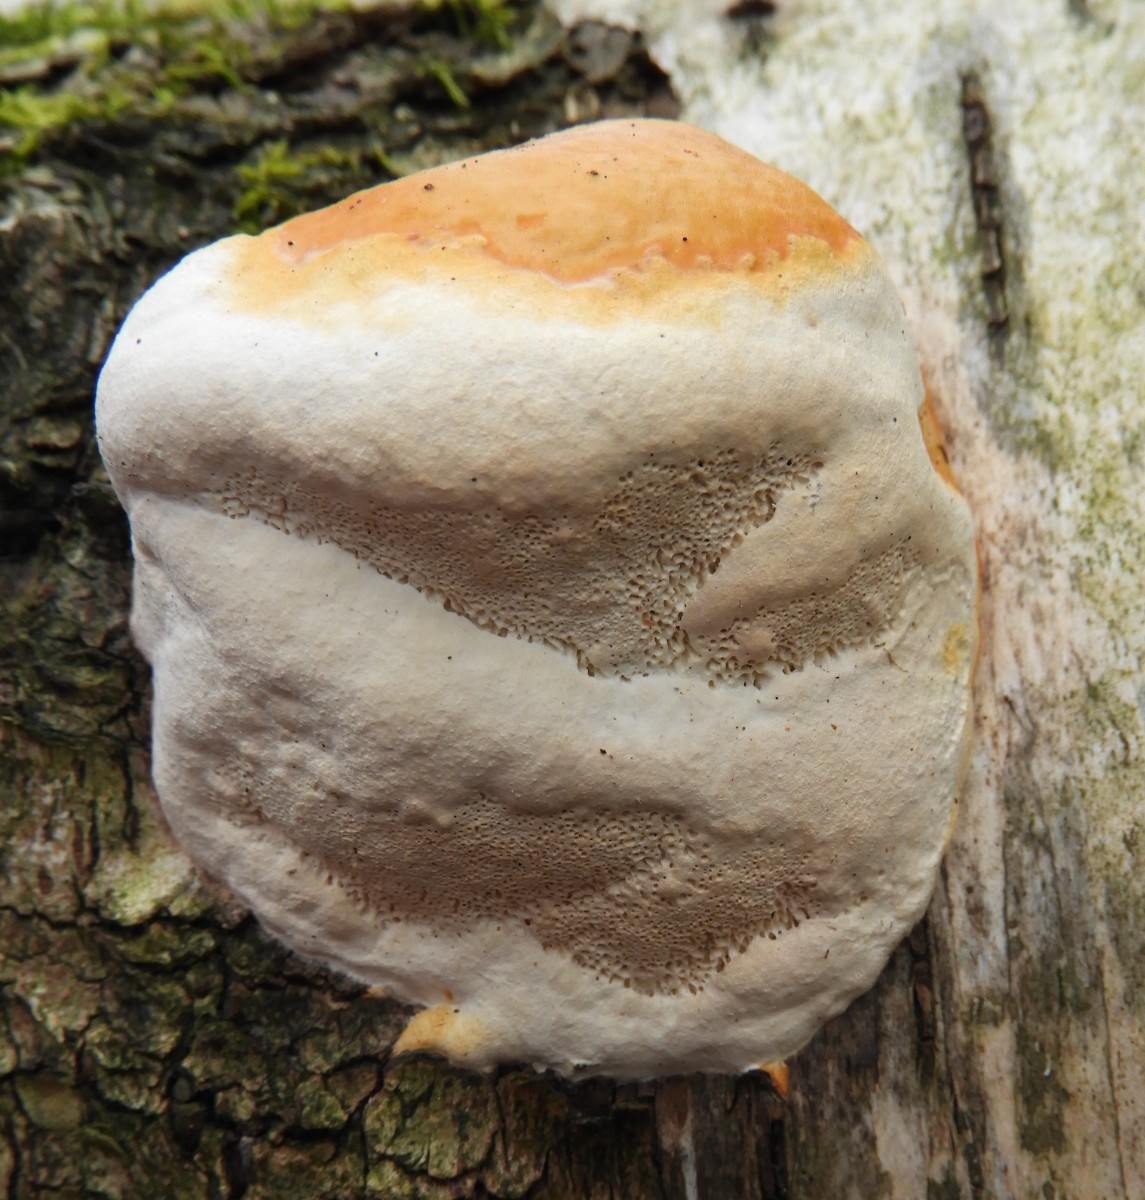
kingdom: Fungi
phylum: Basidiomycota
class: Agaricomycetes
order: Polyporales
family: Fomitopsidaceae
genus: Fomitopsis
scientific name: Fomitopsis pinicola
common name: randbæltet hovporesvamp
